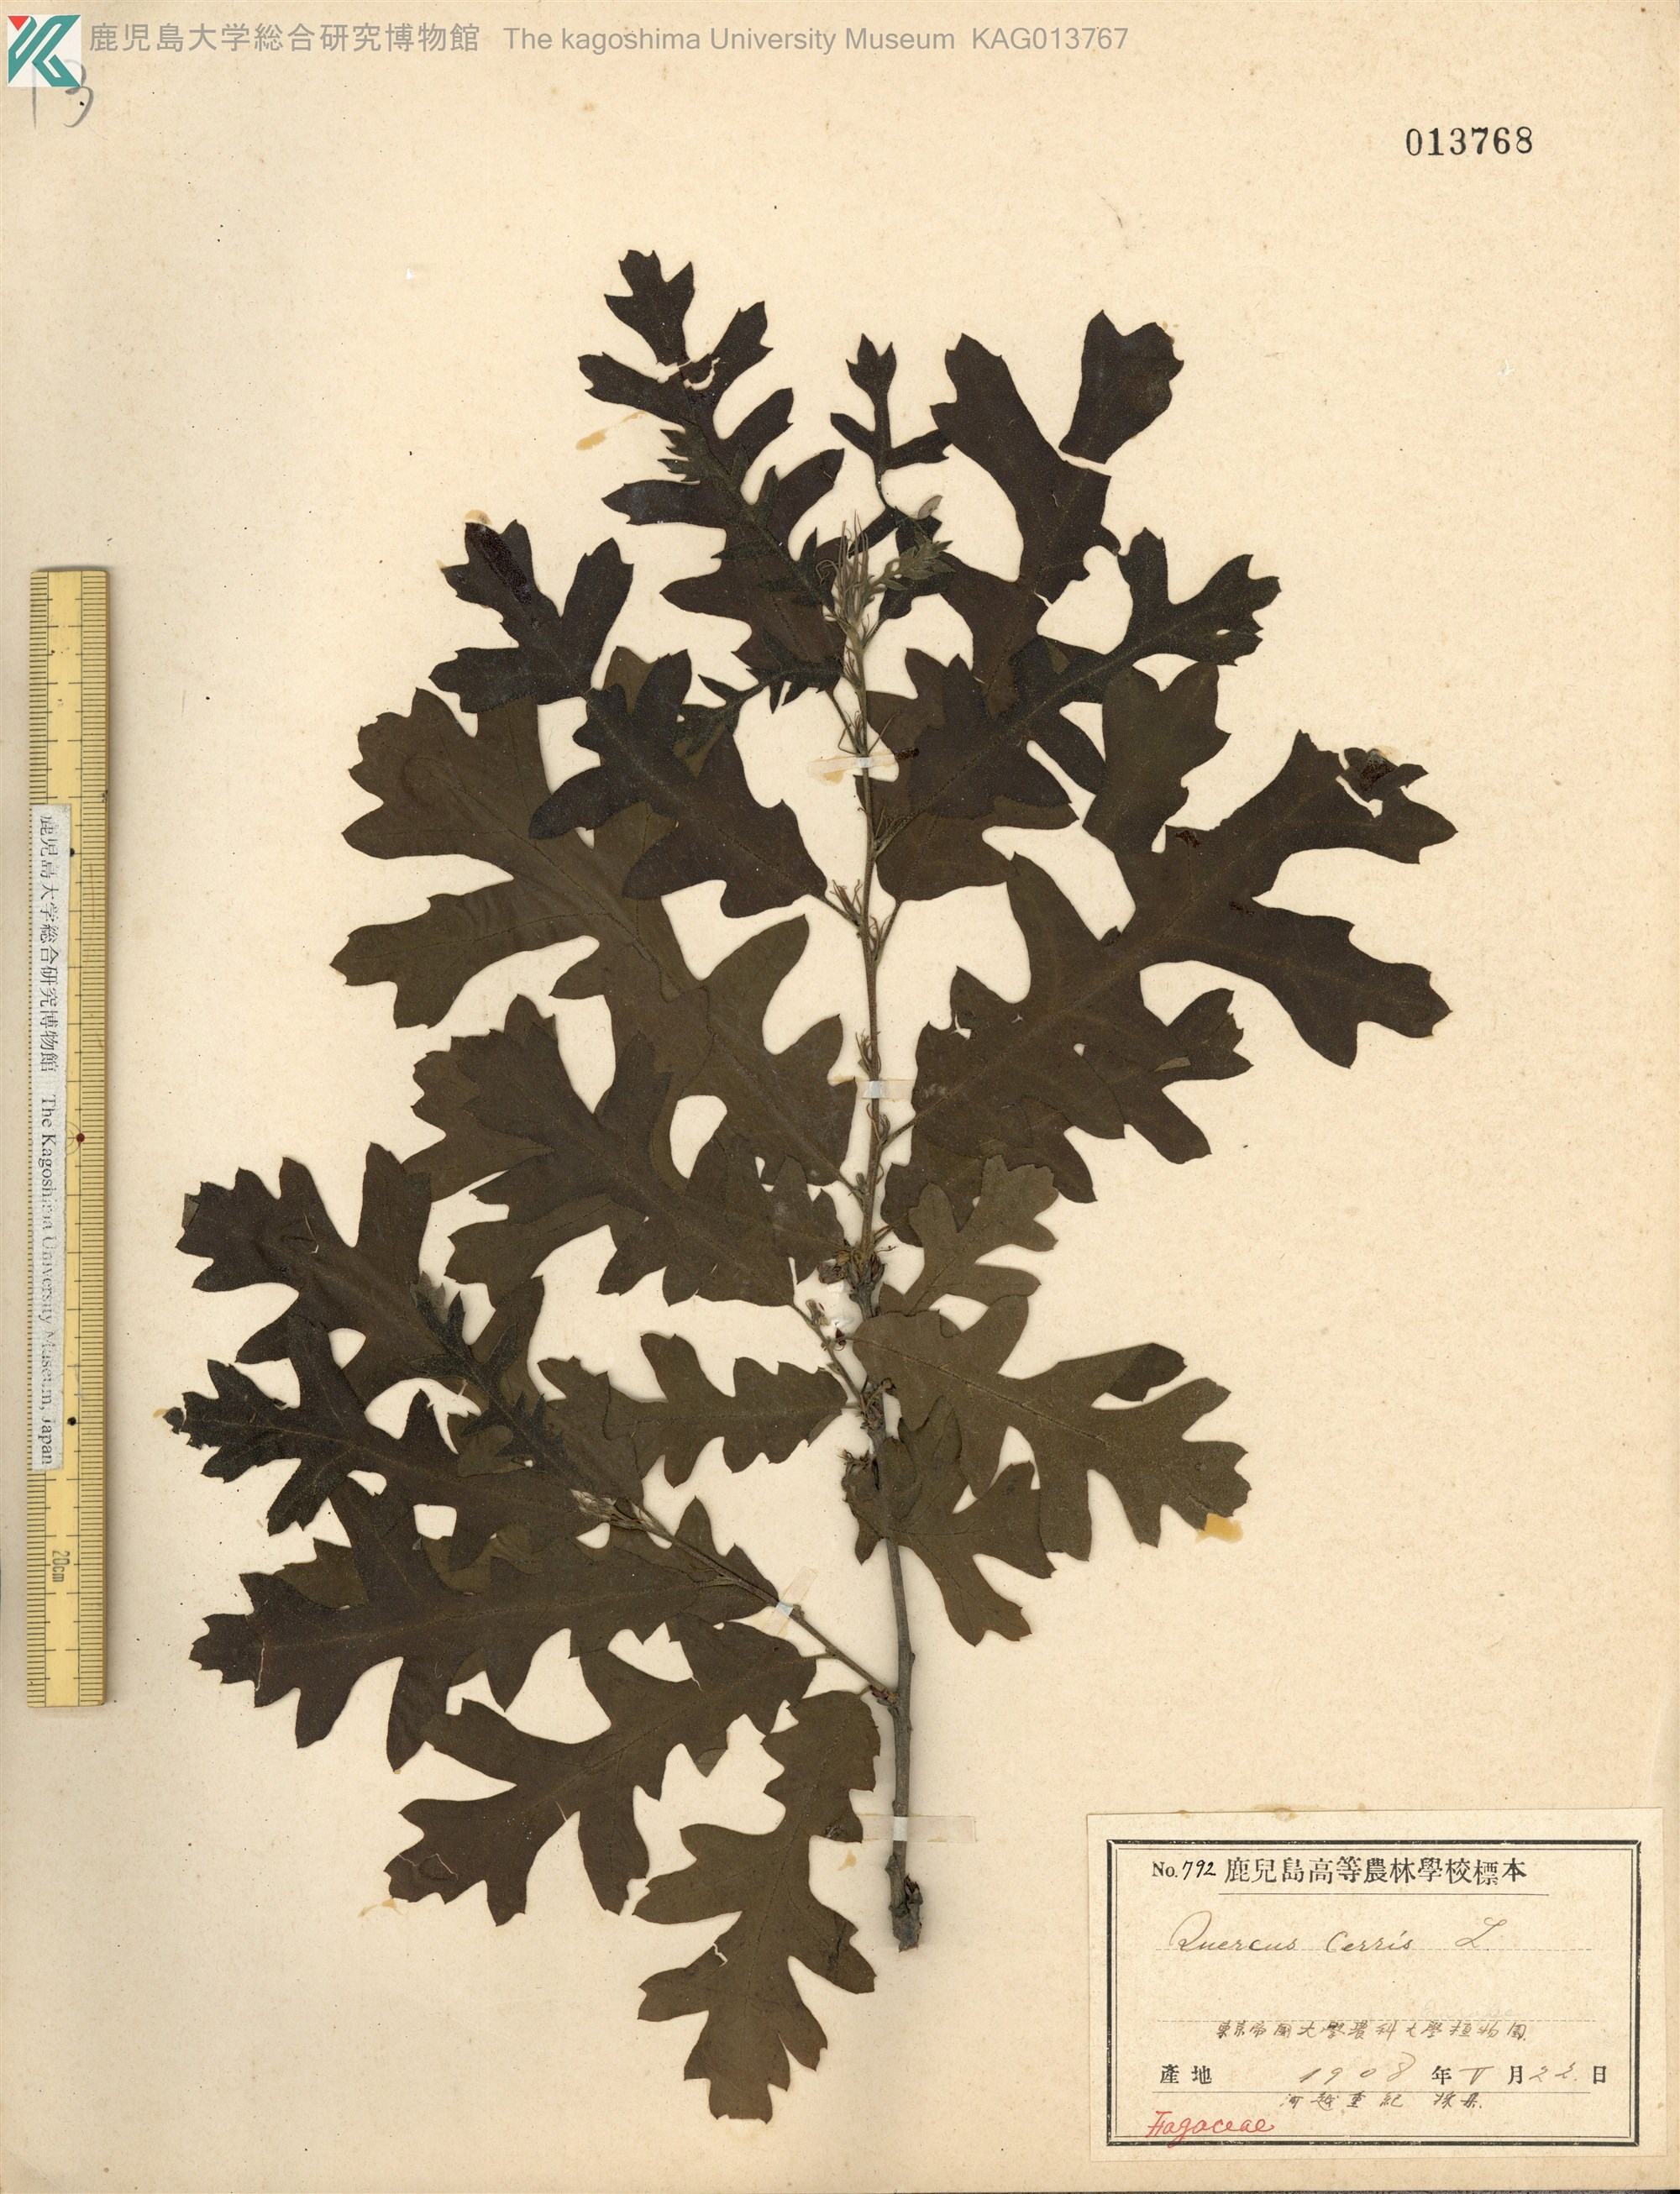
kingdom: Plantae
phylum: Tracheophyta
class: Magnoliopsida
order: Fagales
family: Fagaceae
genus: Quercus
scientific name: Quercus alba
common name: White oak
